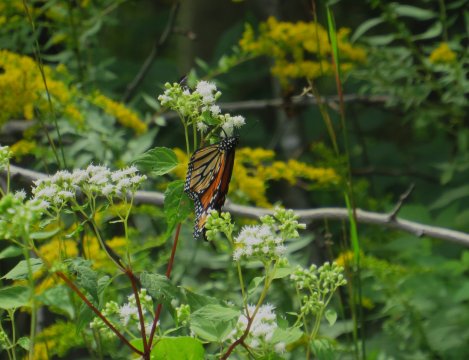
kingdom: Animalia
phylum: Arthropoda
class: Insecta
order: Lepidoptera
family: Nymphalidae
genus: Danaus
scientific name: Danaus plexippus
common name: Monarch
